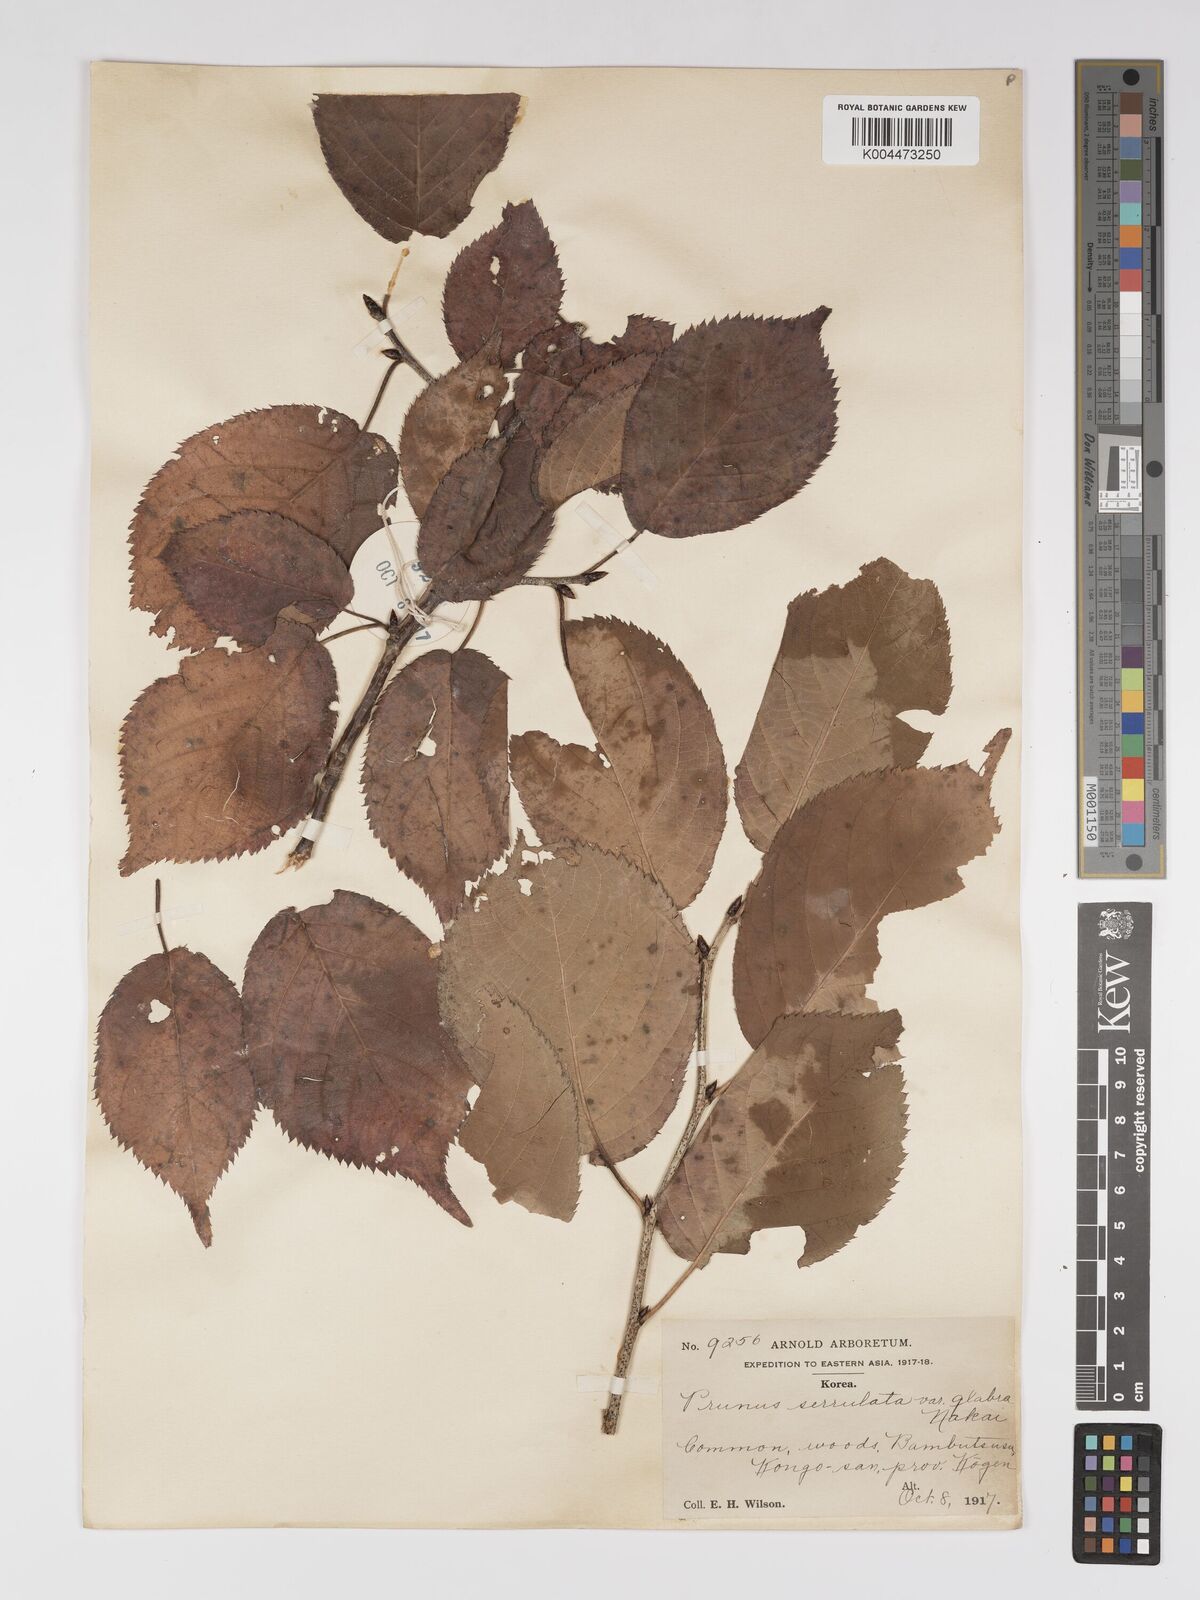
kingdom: Plantae
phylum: Tracheophyta
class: Magnoliopsida
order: Rosales
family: Rosaceae
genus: Prunus
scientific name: Prunus serrulata
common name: Japanese cherry
